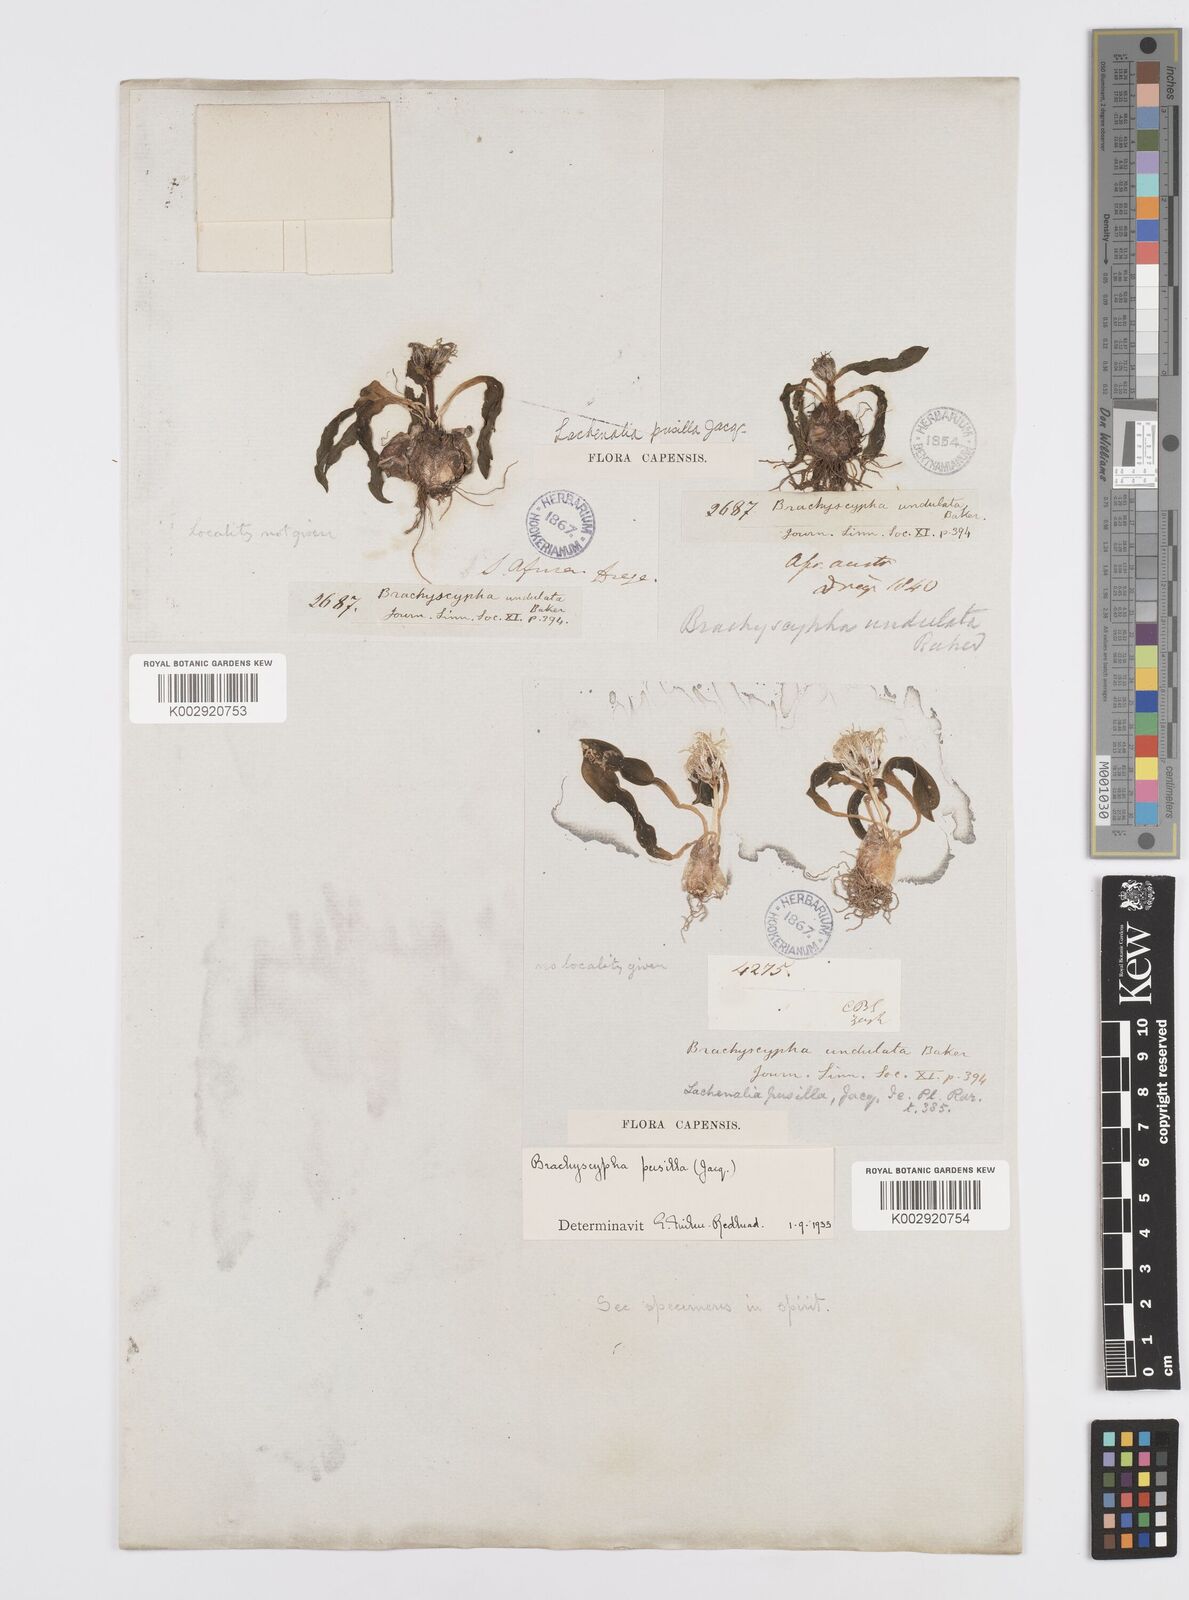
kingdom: Plantae
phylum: Tracheophyta
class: Liliopsida
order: Asparagales
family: Asparagaceae
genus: Lachenalia
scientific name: Lachenalia pusilla
